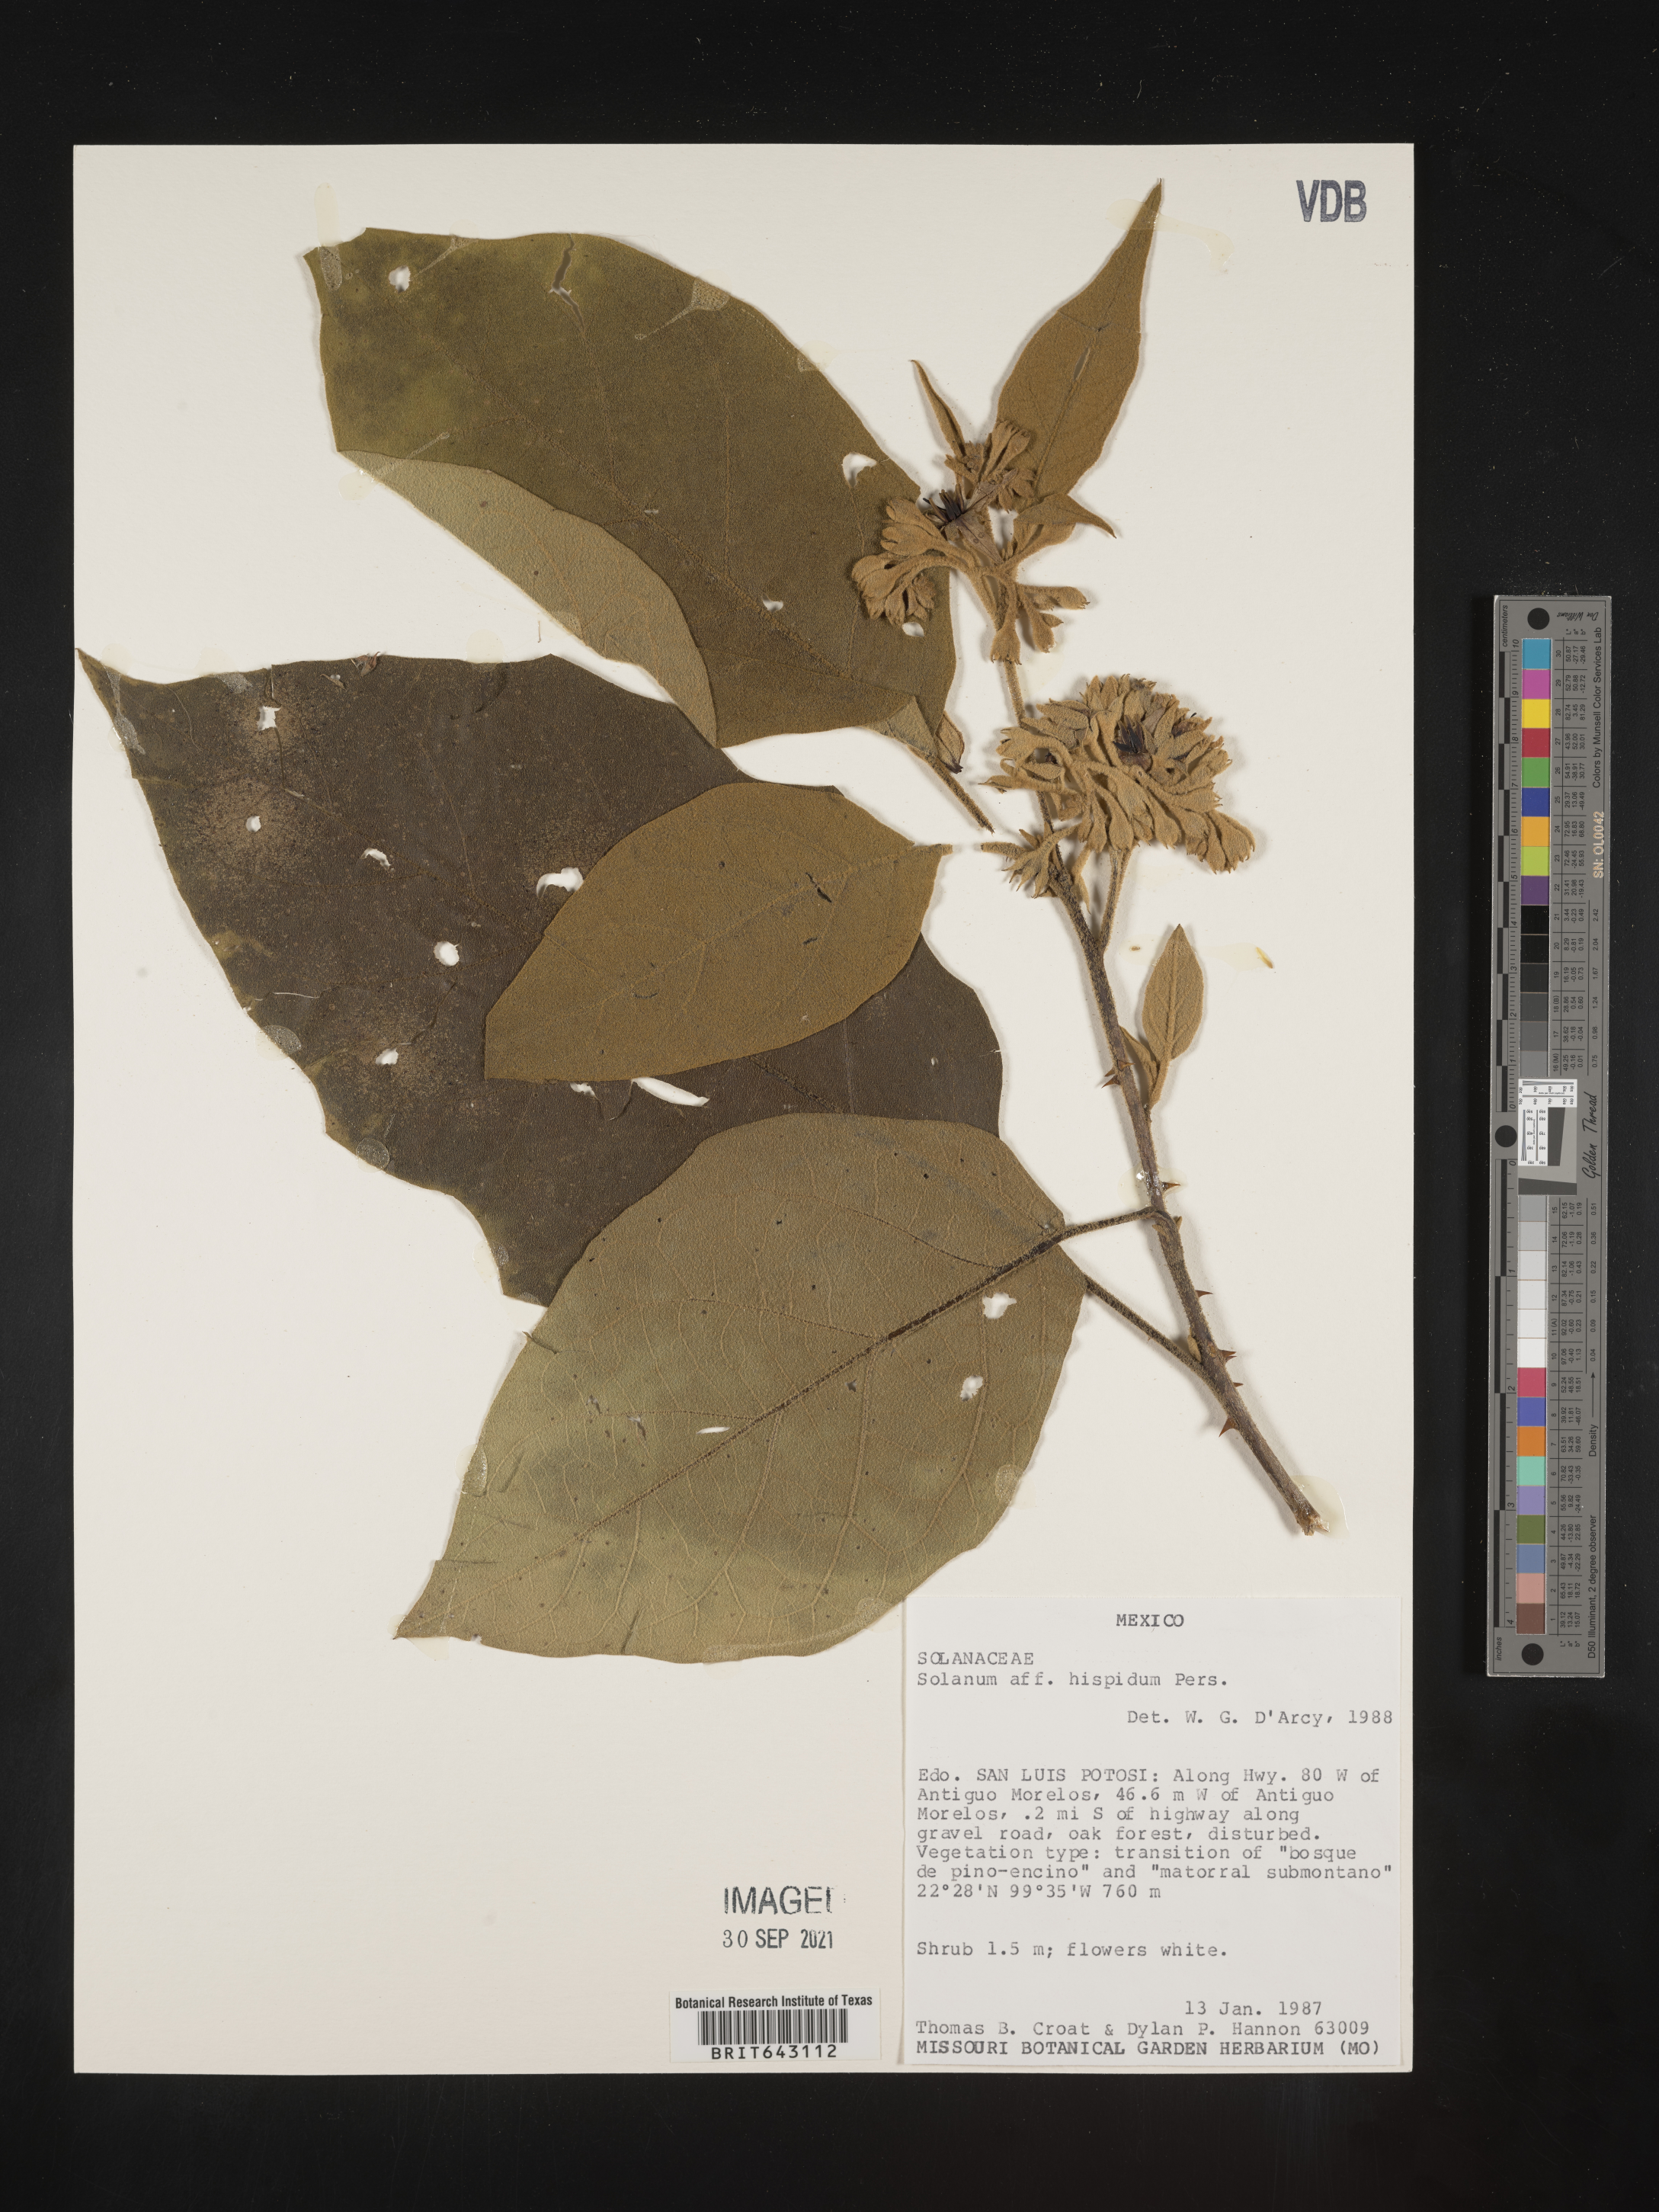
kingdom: Plantae
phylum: Tracheophyta
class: Magnoliopsida
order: Solanales
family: Solanaceae
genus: Solanum
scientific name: Solanum
